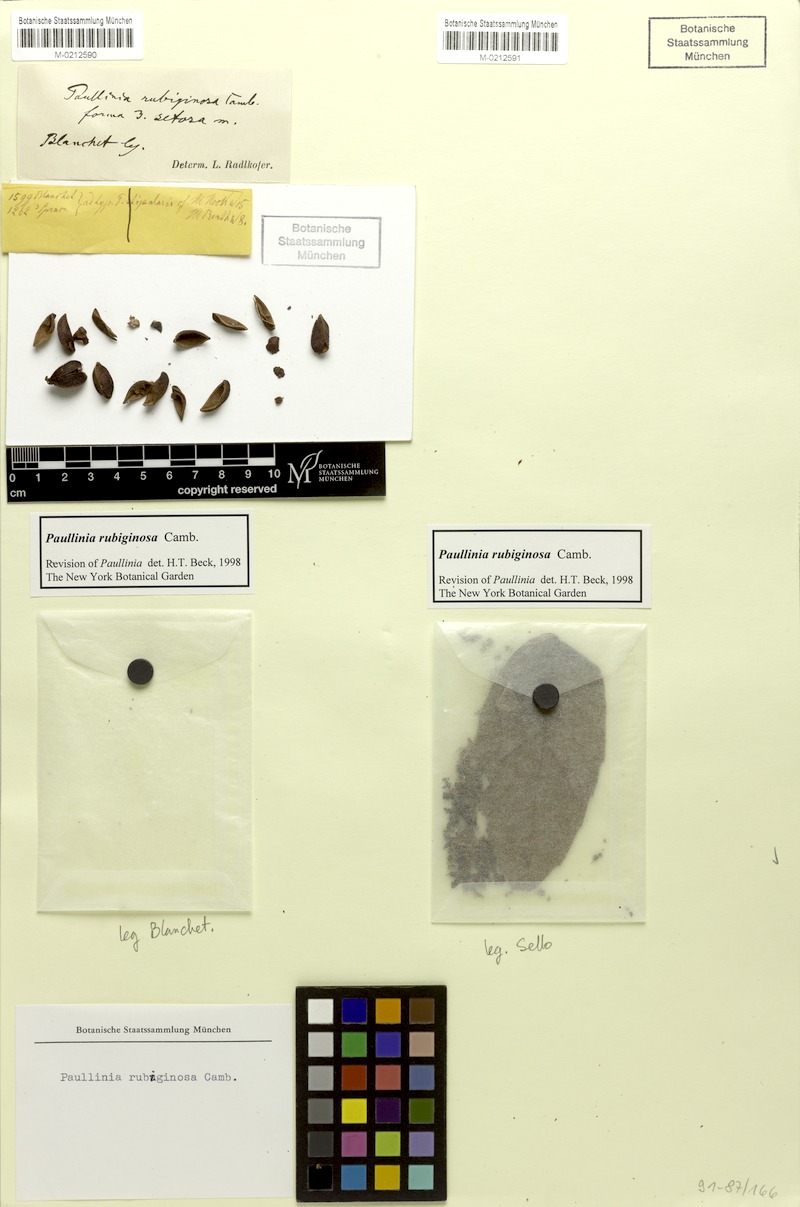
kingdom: Plantae
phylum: Tracheophyta
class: Magnoliopsida
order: Sapindales
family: Sapindaceae
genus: Paullinia
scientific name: Paullinia rubiginosa
